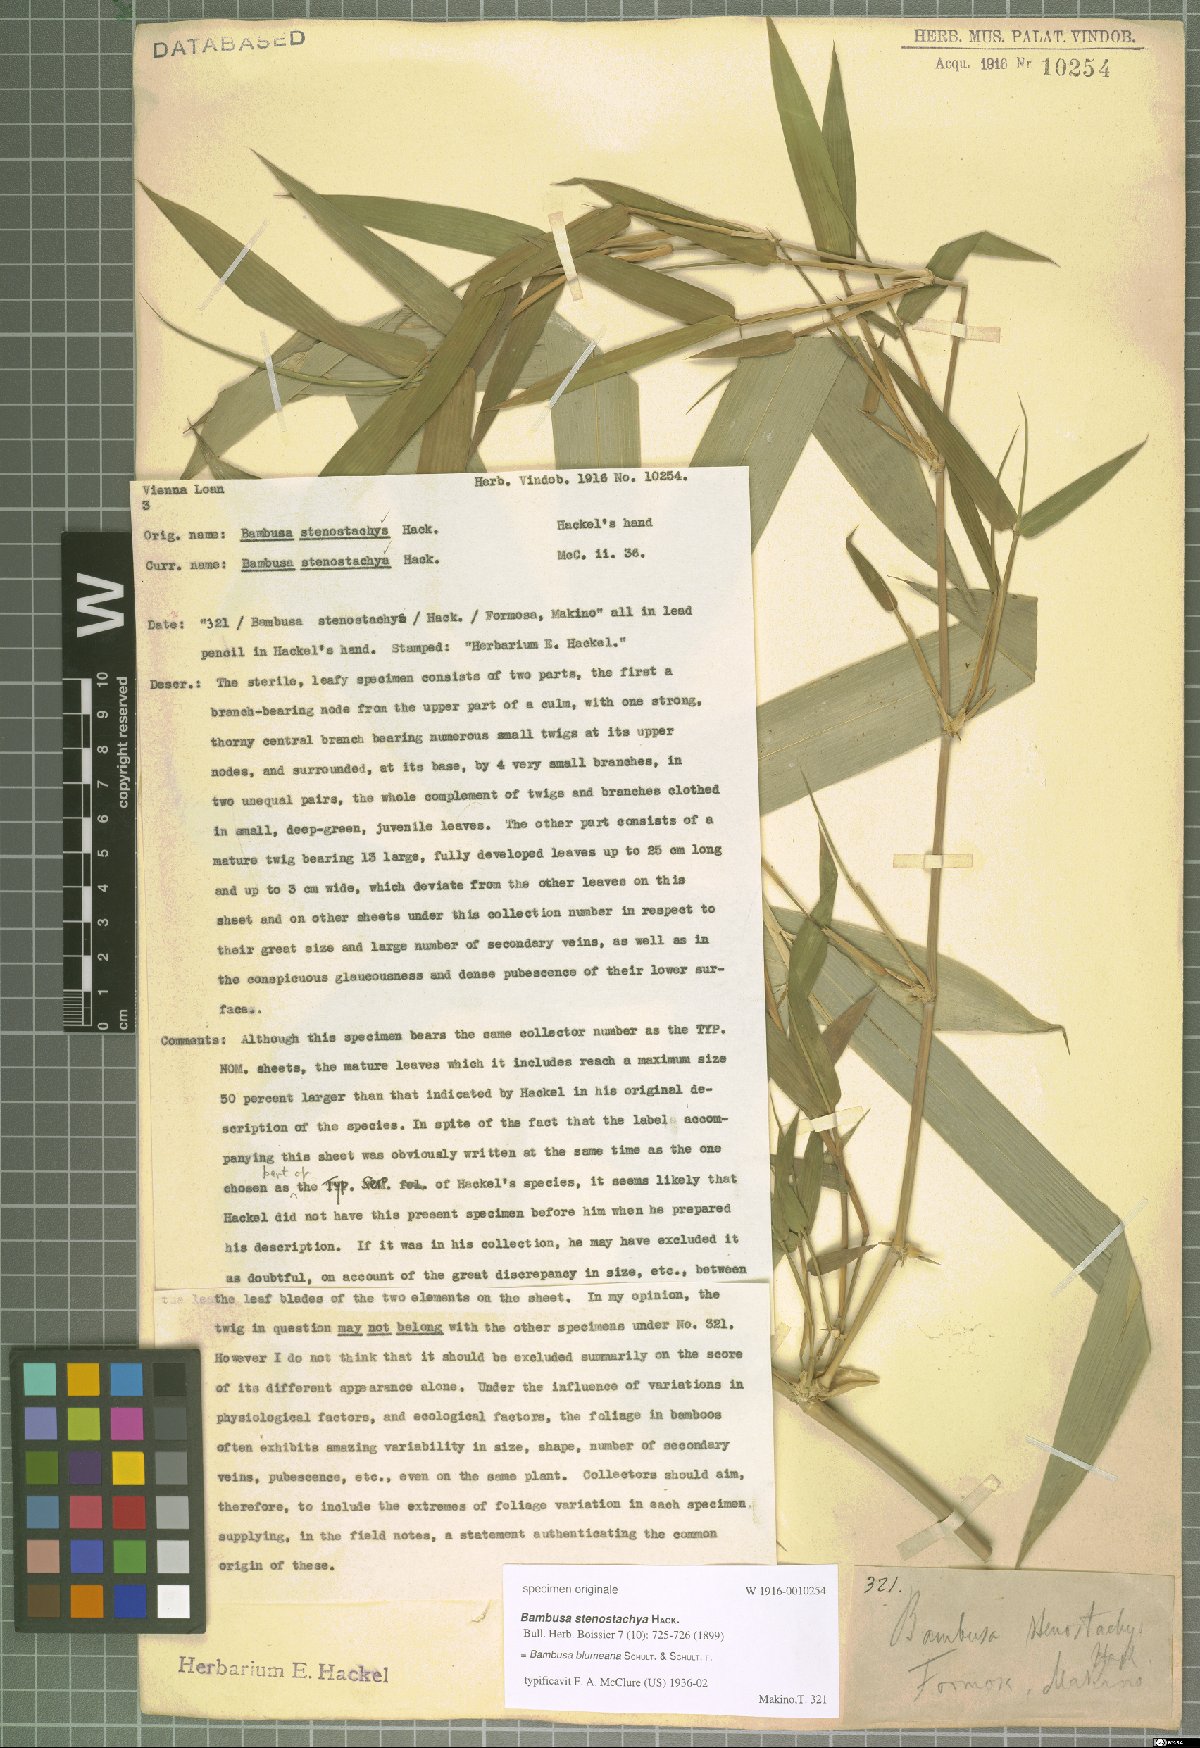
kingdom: Plantae
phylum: Tracheophyta
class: Liliopsida
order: Poales
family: Poaceae
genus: Bambusa
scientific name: Bambusa spinosa
